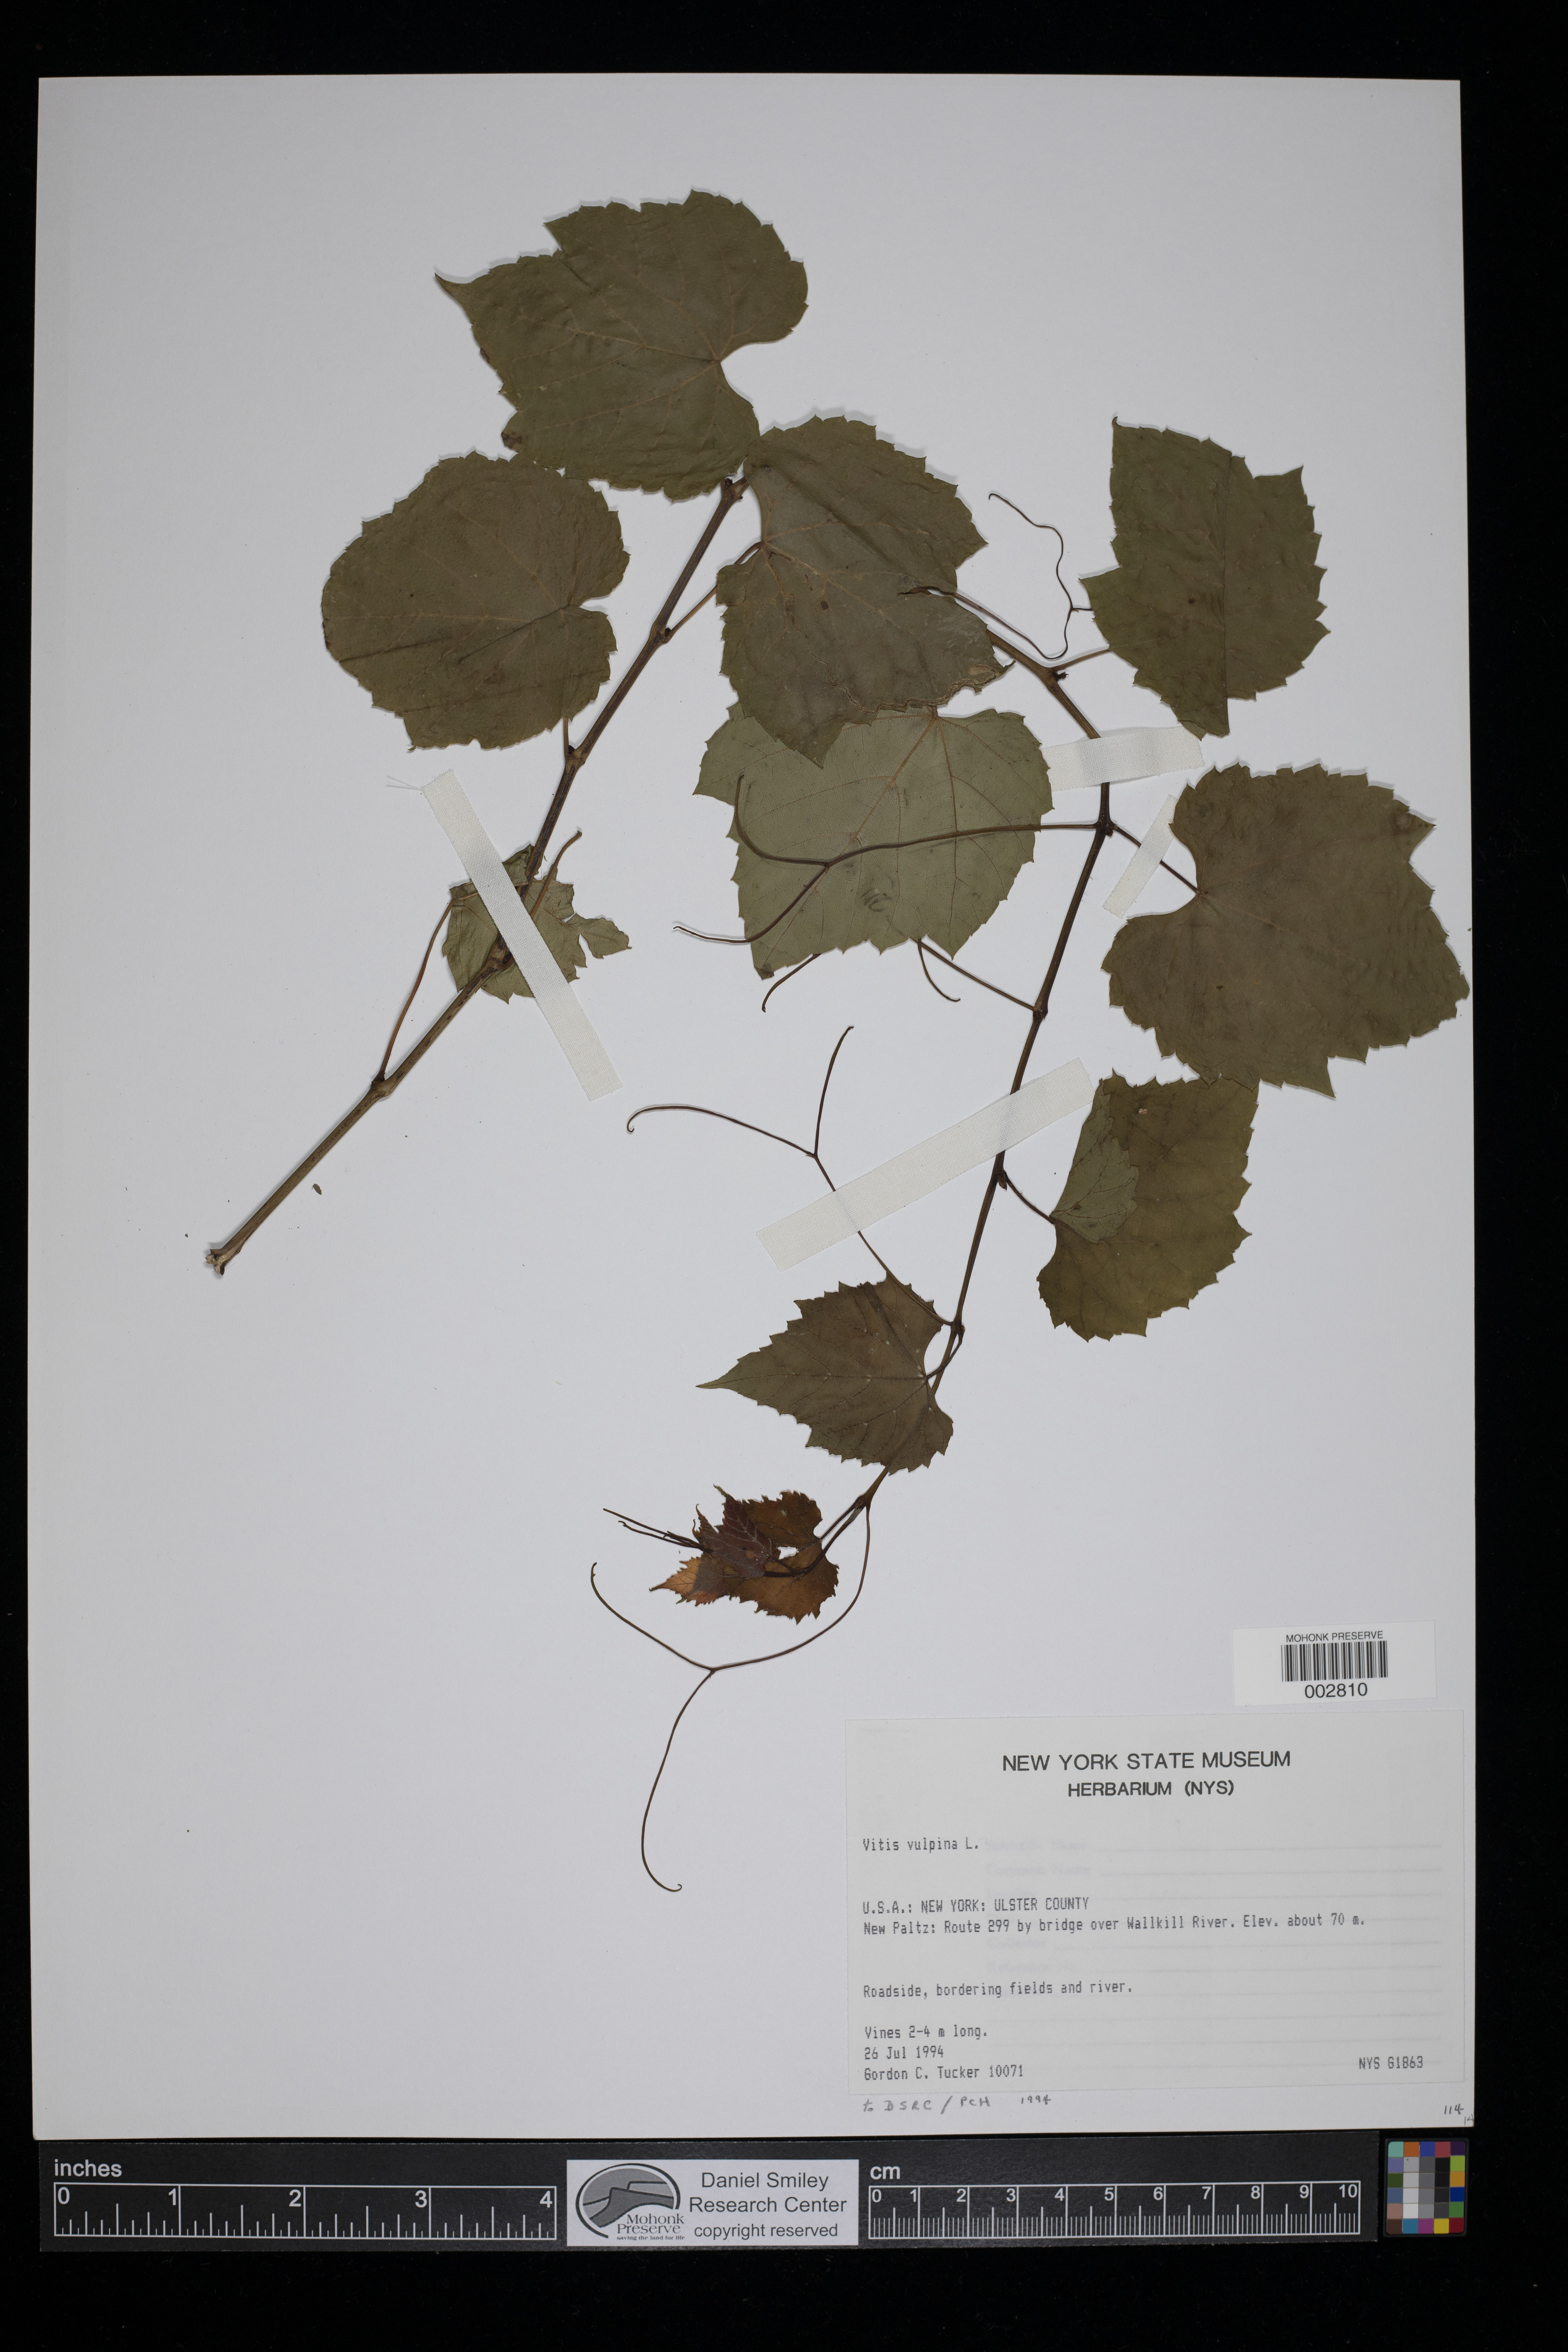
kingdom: Plantae
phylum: Tracheophyta
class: Magnoliopsida
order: Vitales
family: Vitaceae
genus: Vitis
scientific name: Vitis vulpina
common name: Frost grape
